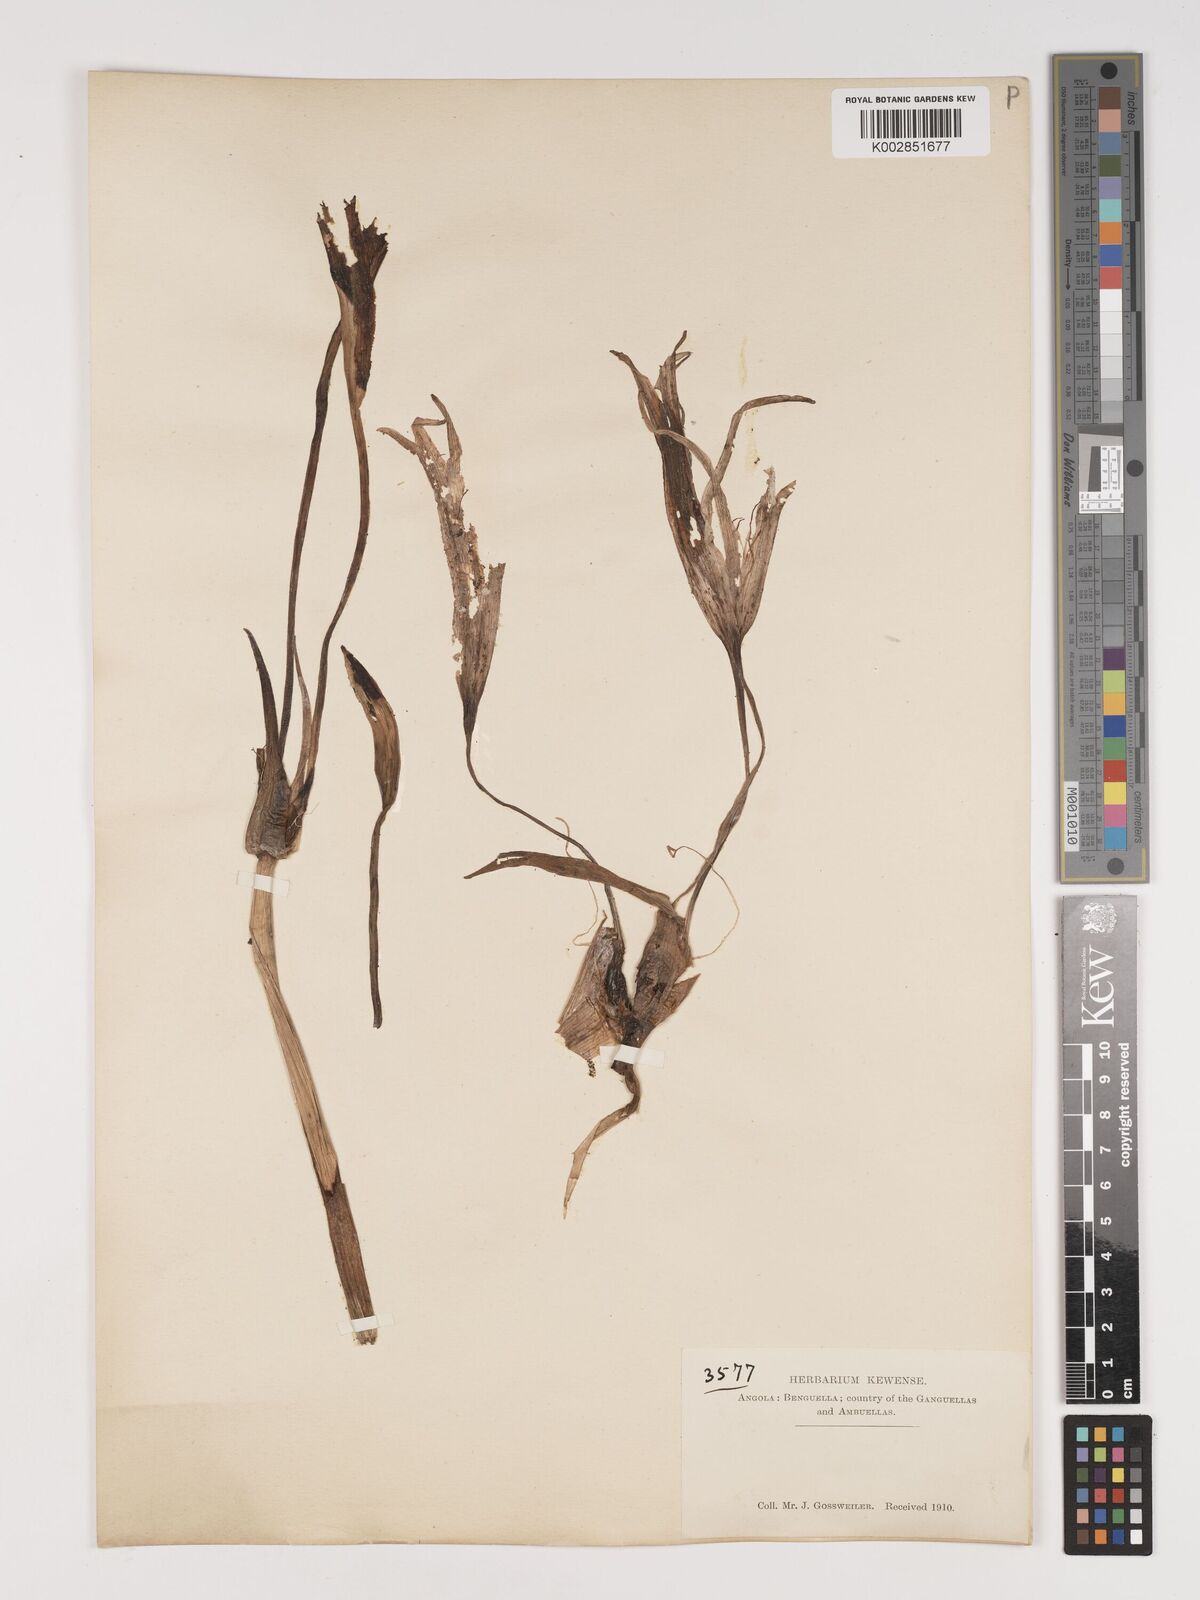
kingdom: Plantae
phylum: Tracheophyta
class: Liliopsida
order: Asparagales
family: Amaryllidaceae
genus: Crinum
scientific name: Crinum
